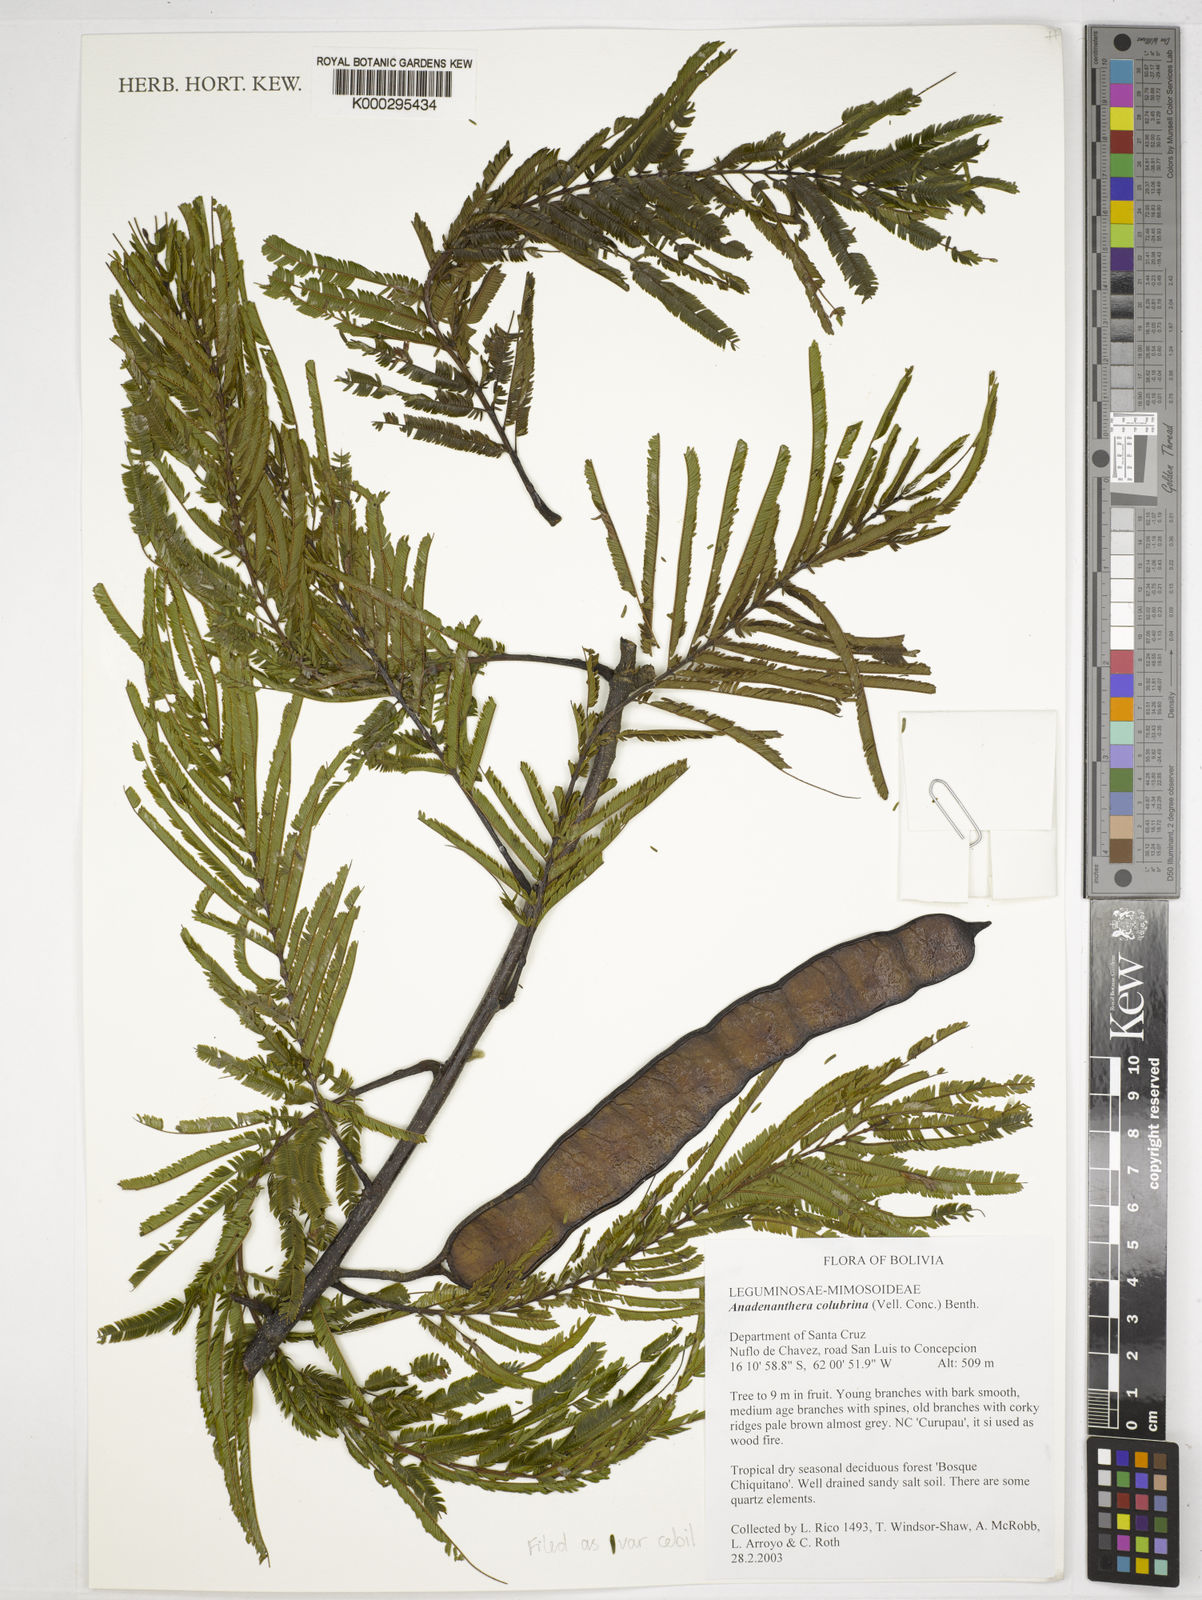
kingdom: Plantae
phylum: Tracheophyta
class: Magnoliopsida
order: Fabales
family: Fabaceae
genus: Anadenanthera
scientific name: Anadenanthera
